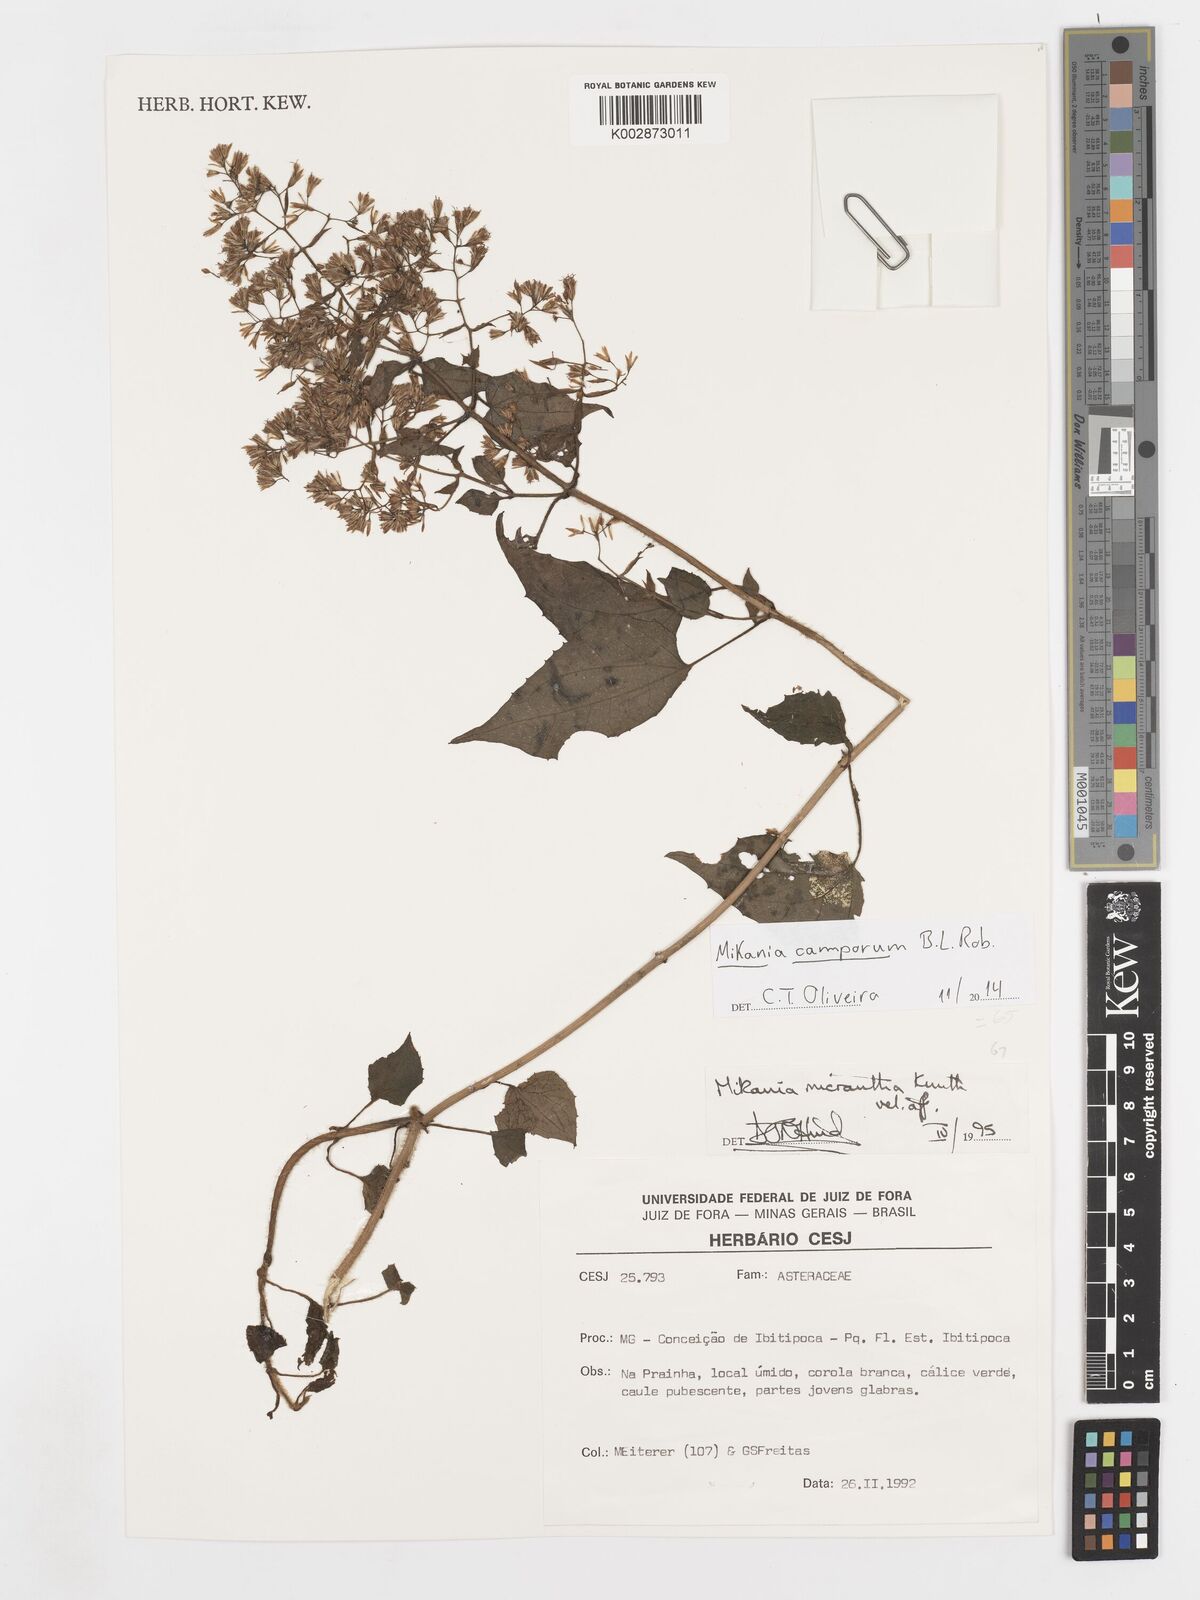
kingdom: Plantae
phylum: Tracheophyta
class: Magnoliopsida
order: Asterales
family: Asteraceae
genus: Mikania
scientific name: Mikania camporum
